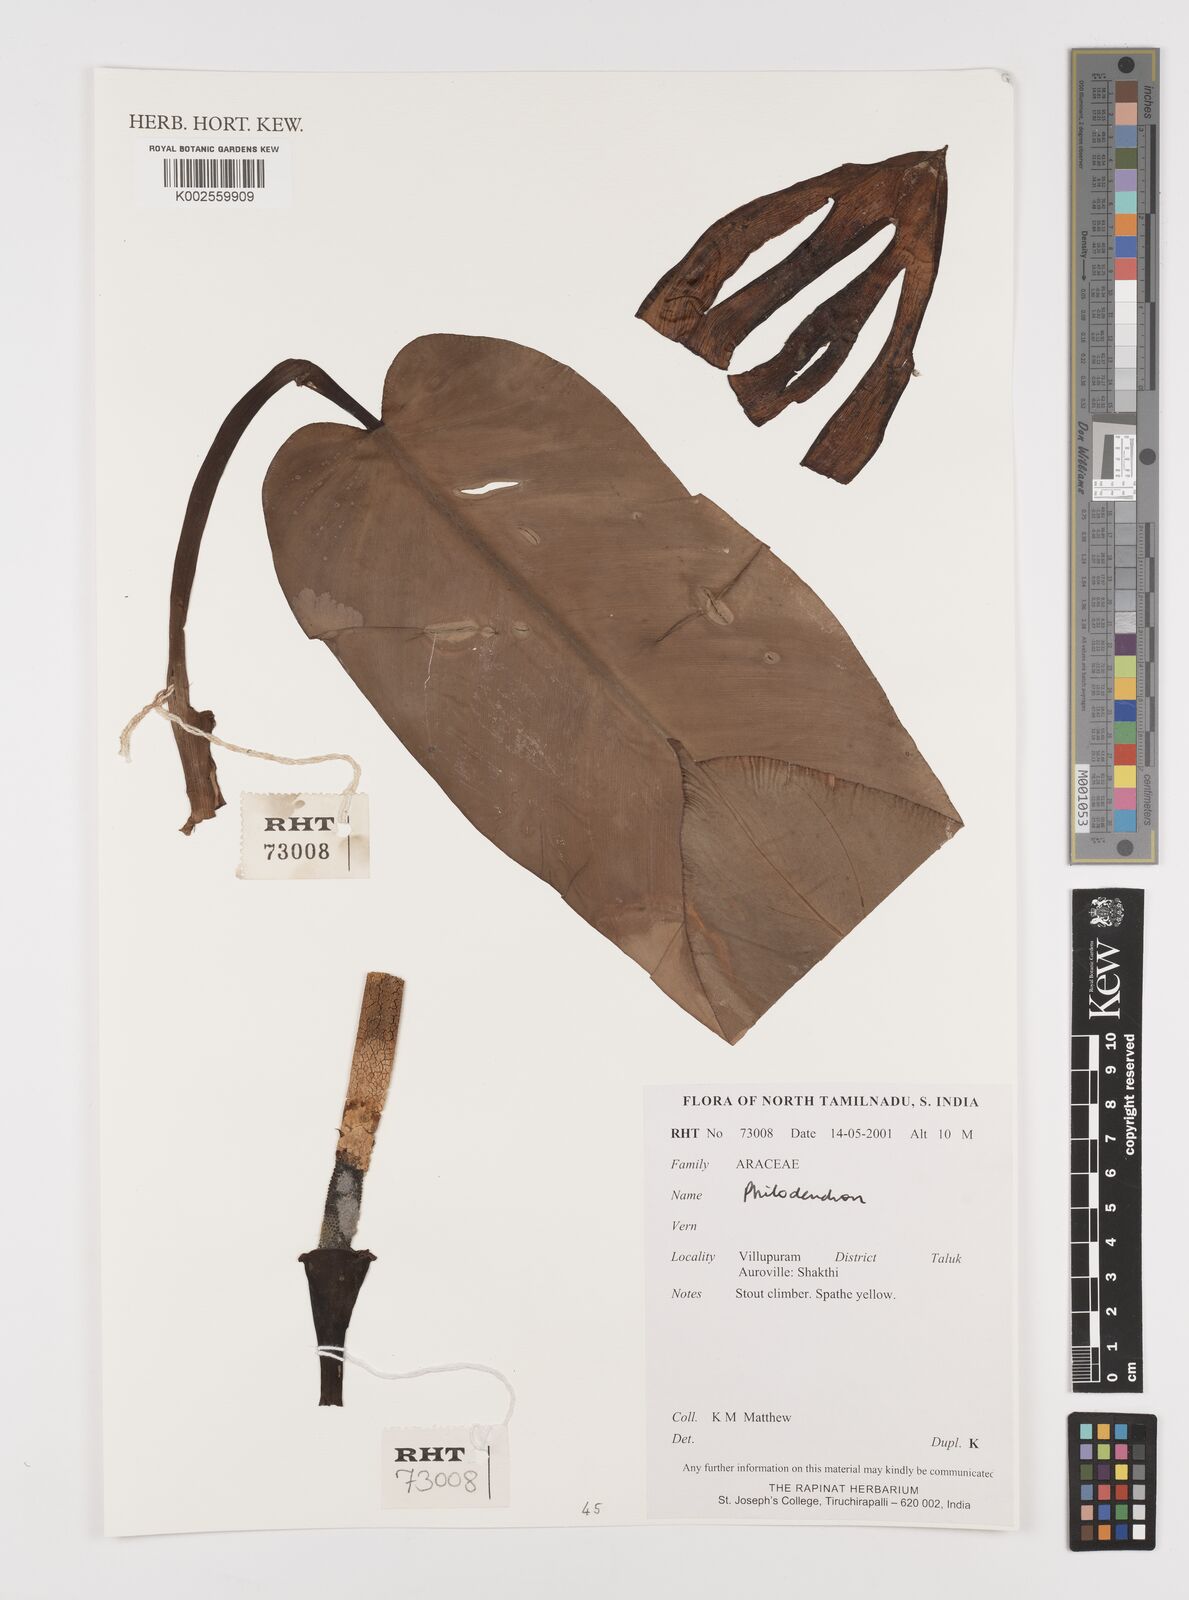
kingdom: Plantae
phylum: Tracheophyta
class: Liliopsida
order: Alismatales
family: Araceae
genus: Philodendron
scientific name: Philodendron
